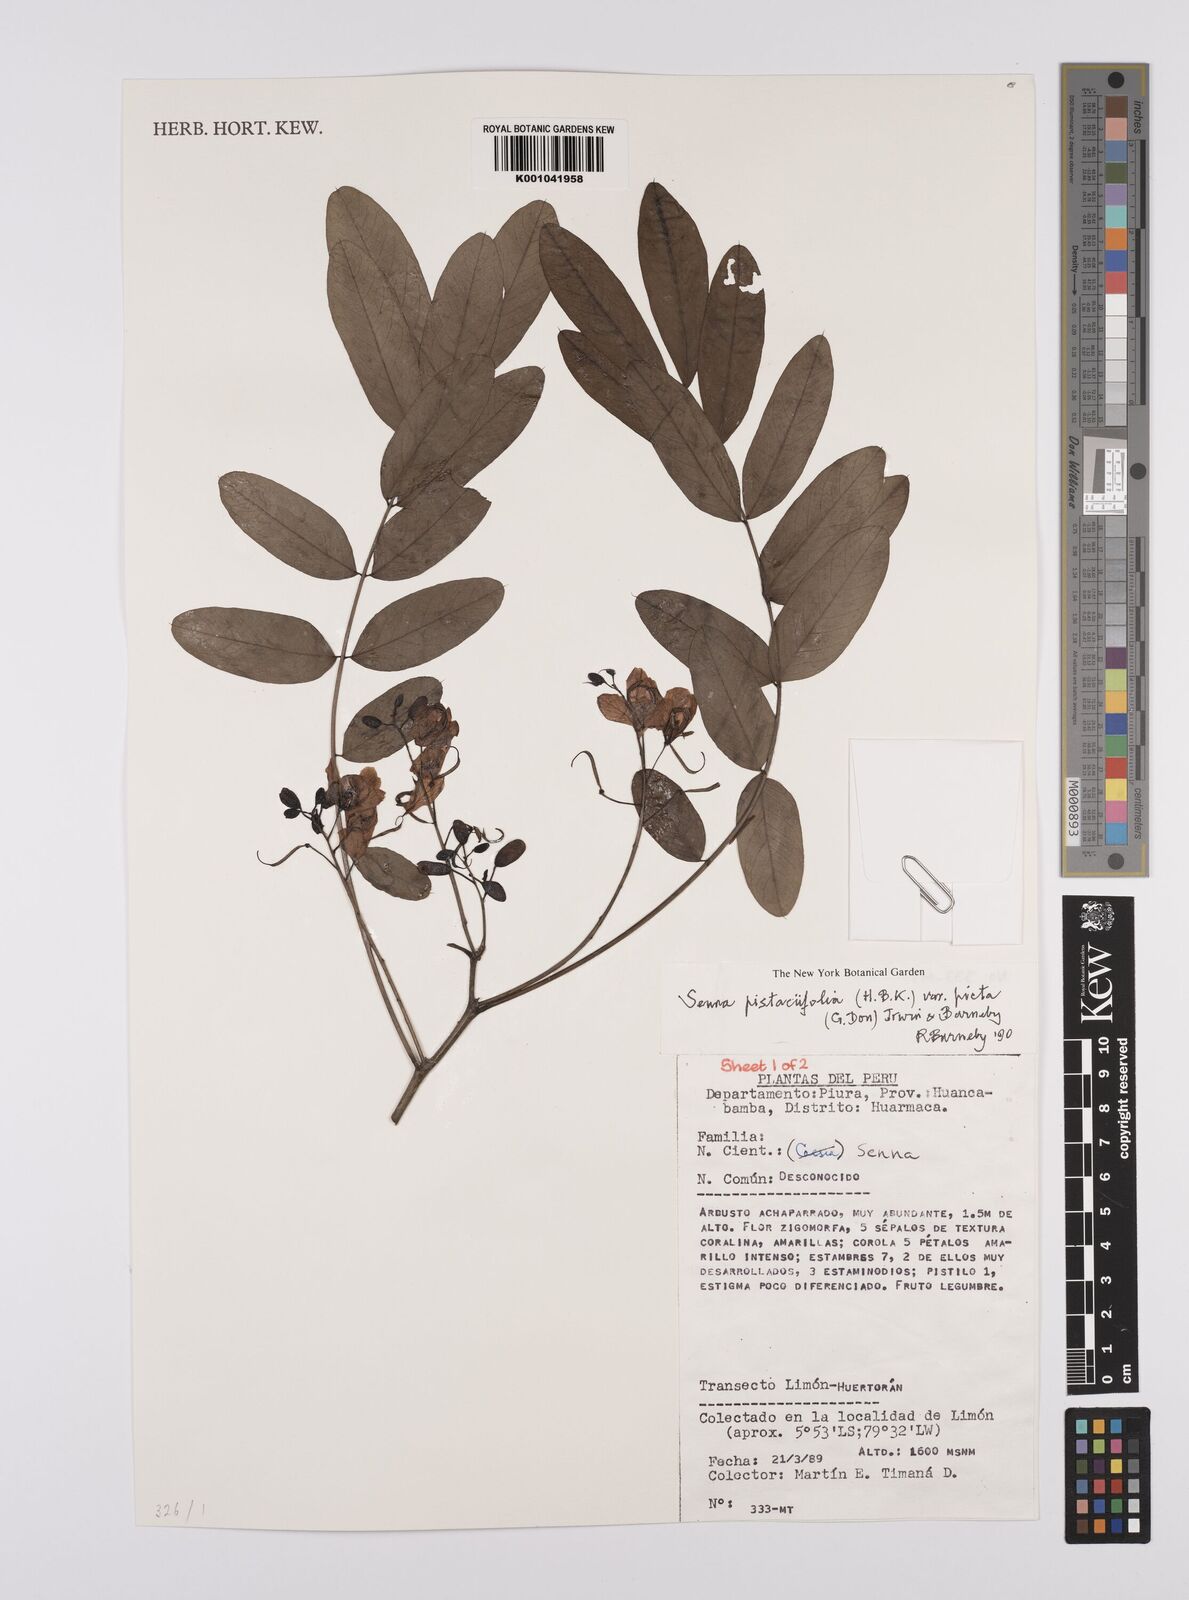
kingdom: Plantae
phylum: Tracheophyta
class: Magnoliopsida
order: Fabales
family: Fabaceae
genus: Senna
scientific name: Senna pistaciifolia
